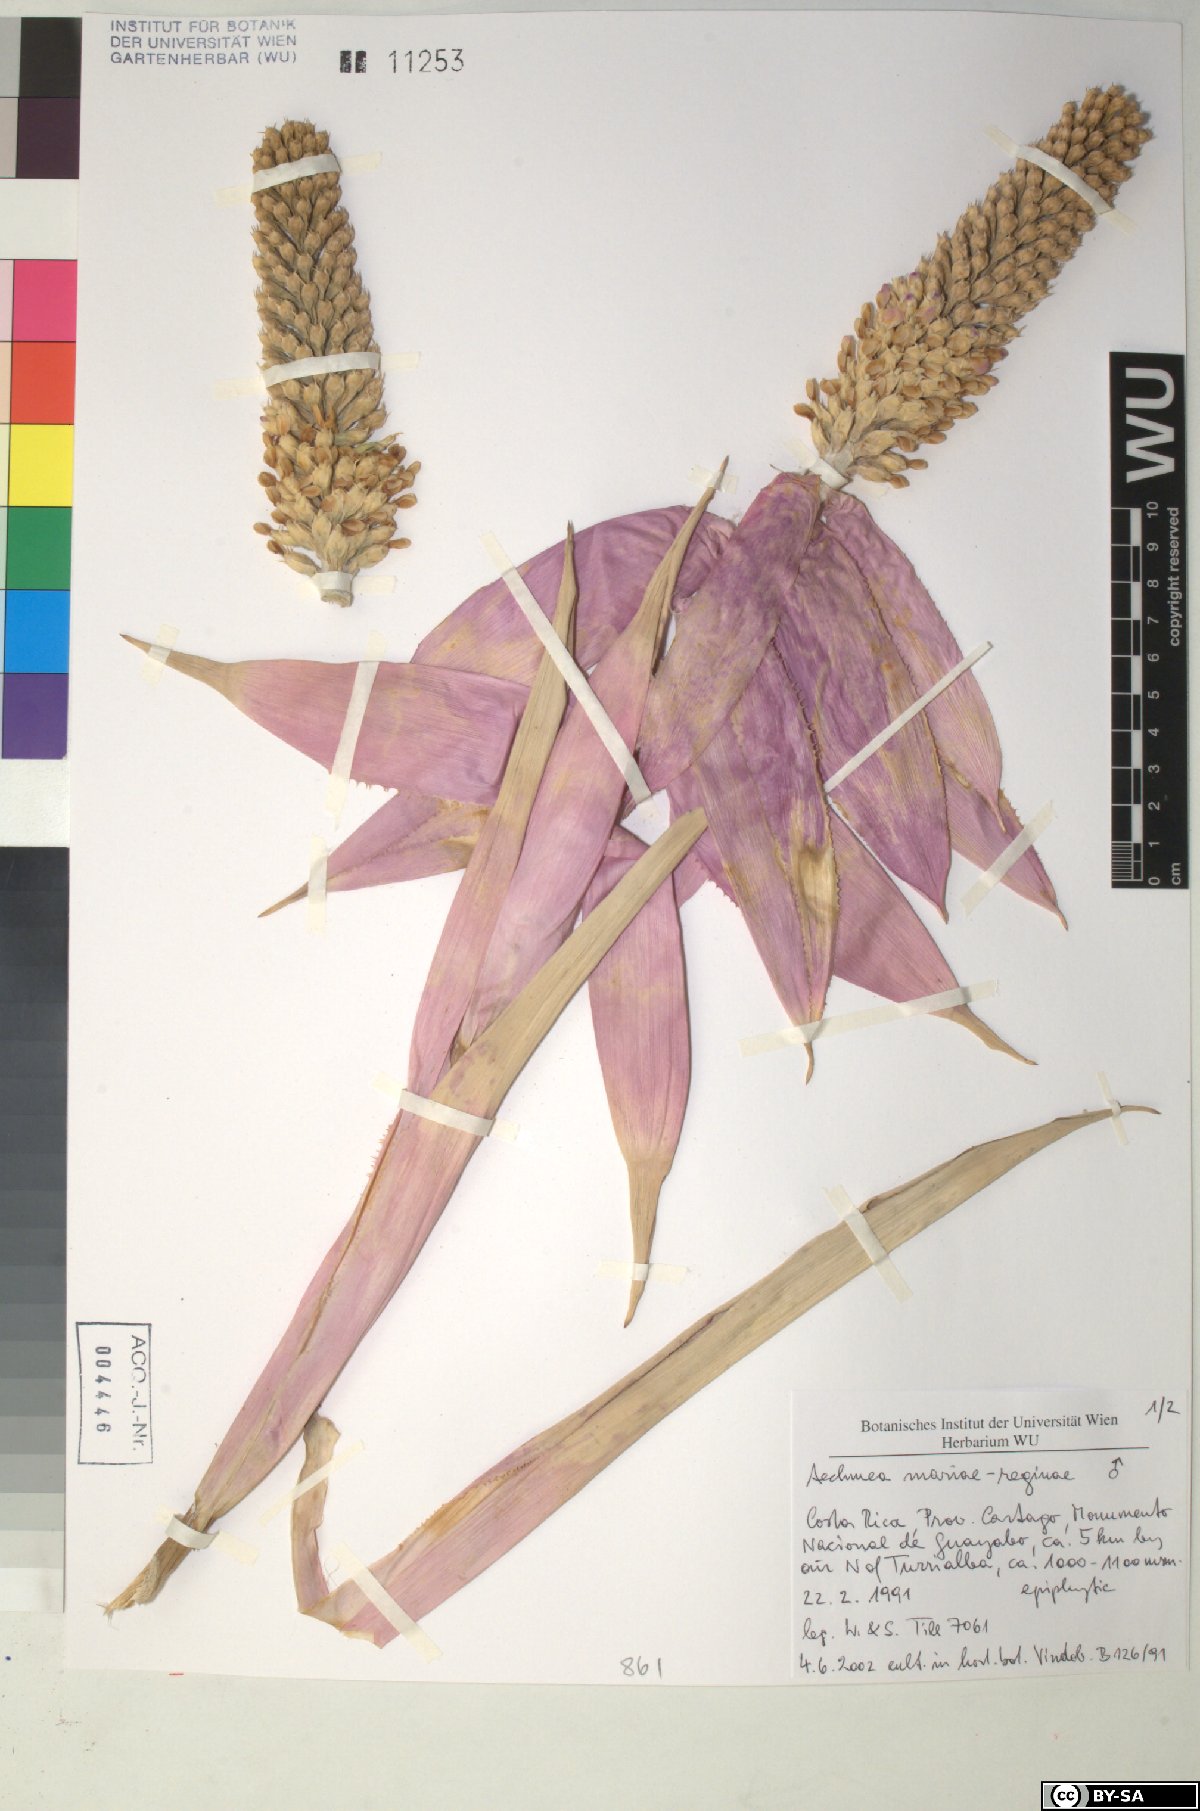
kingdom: Plantae
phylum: Tracheophyta
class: Liliopsida
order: Poales
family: Bromeliaceae
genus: Aechmea
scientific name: Aechmea
